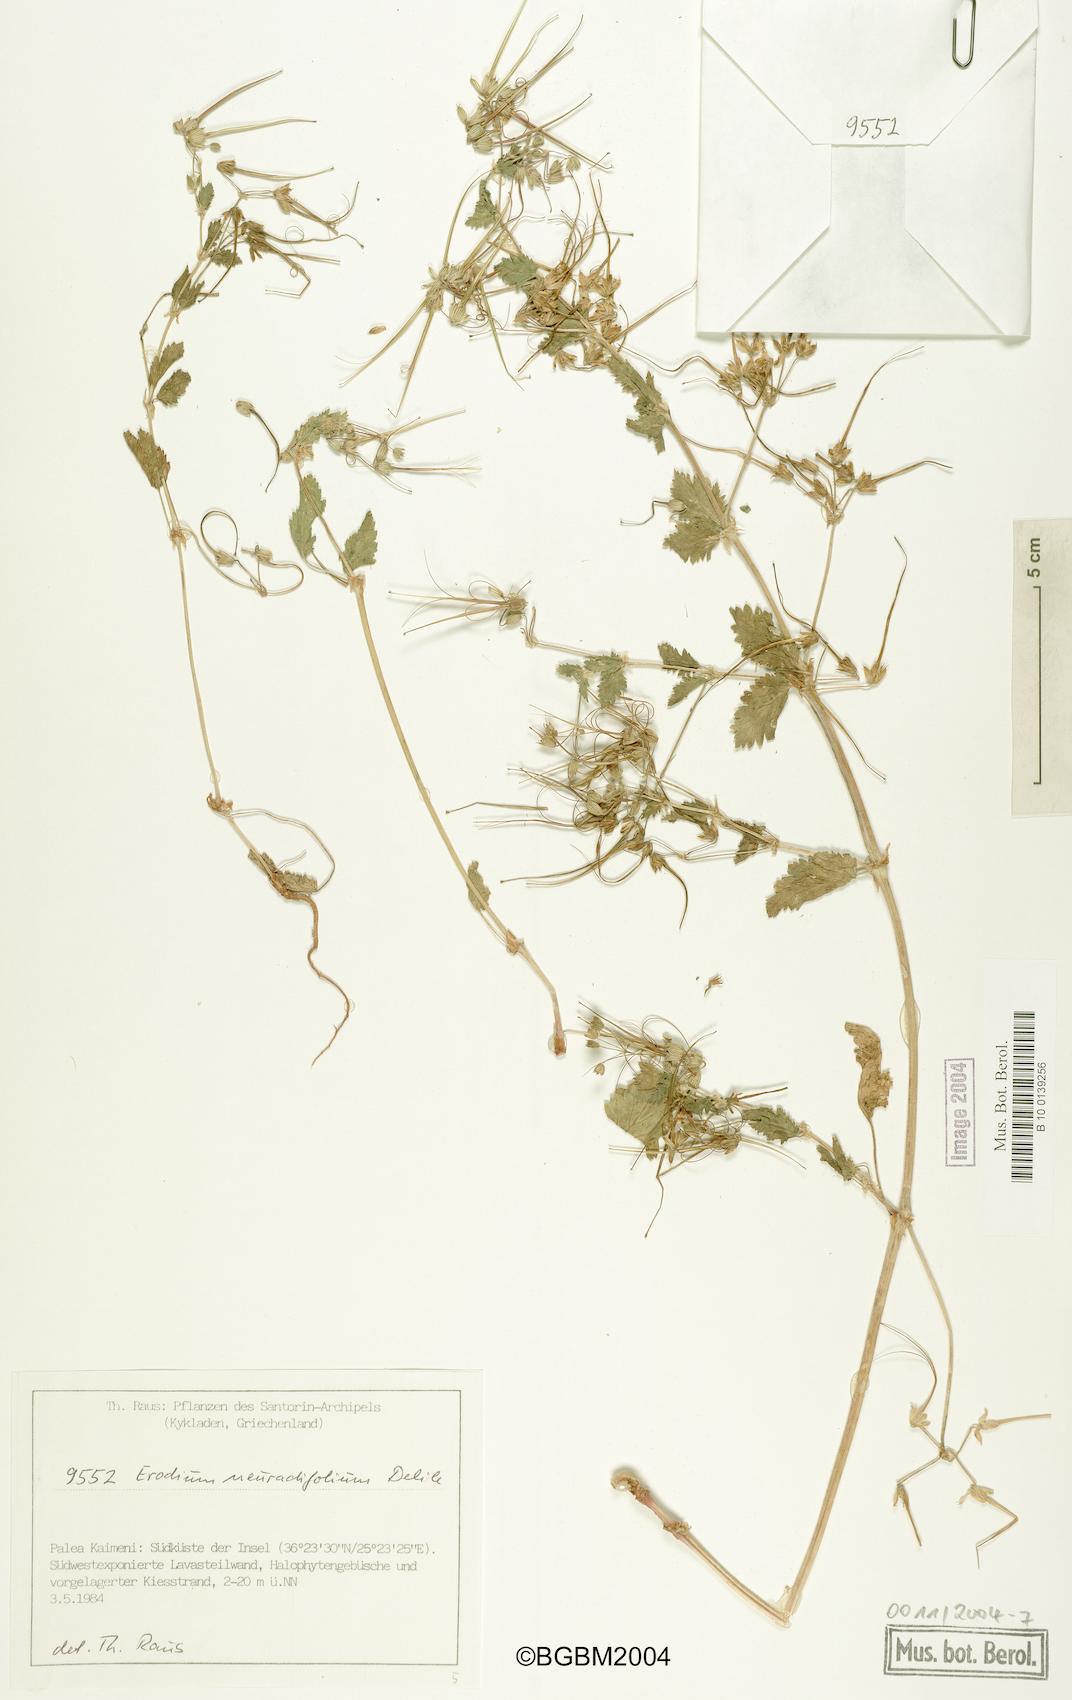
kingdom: Plantae
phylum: Tracheophyta
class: Magnoliopsida
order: Geraniales
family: Geraniaceae
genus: Erodium
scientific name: Erodium malacoides
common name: Soft stork's-bill
